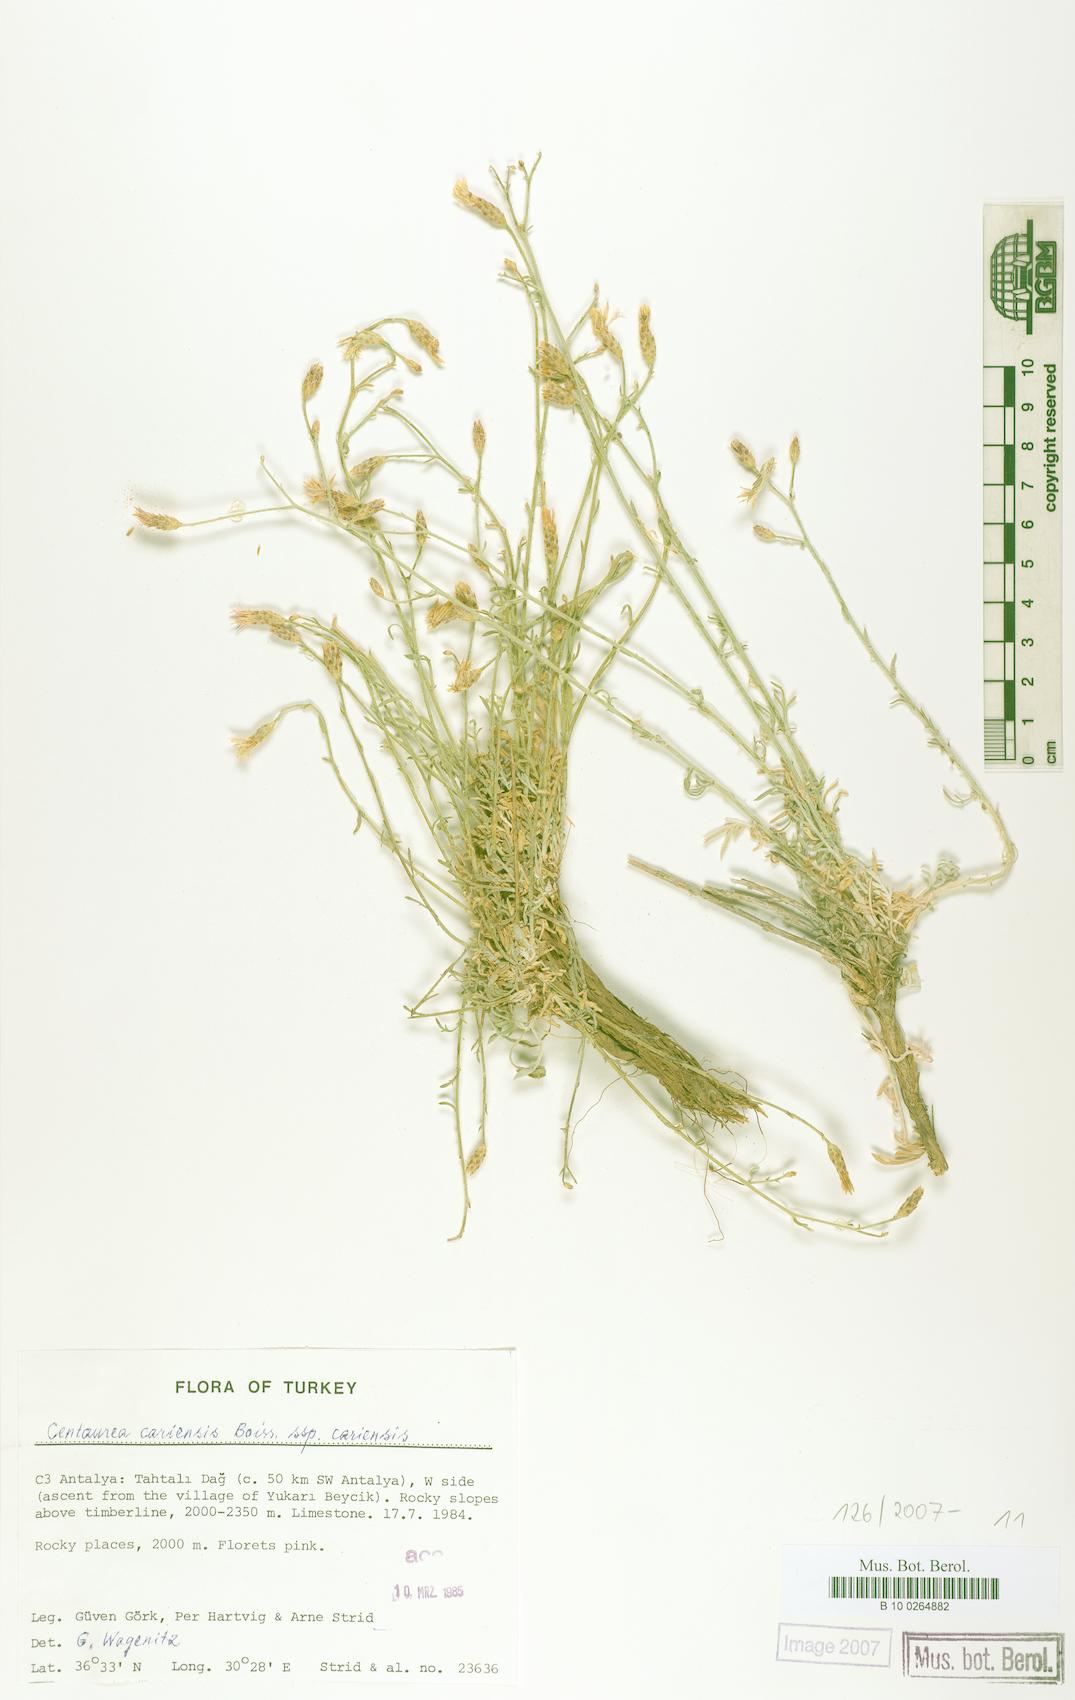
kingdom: Plantae
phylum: Tracheophyta
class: Magnoliopsida
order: Asterales
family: Asteraceae
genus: Centaurea
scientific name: Centaurea cariensis
